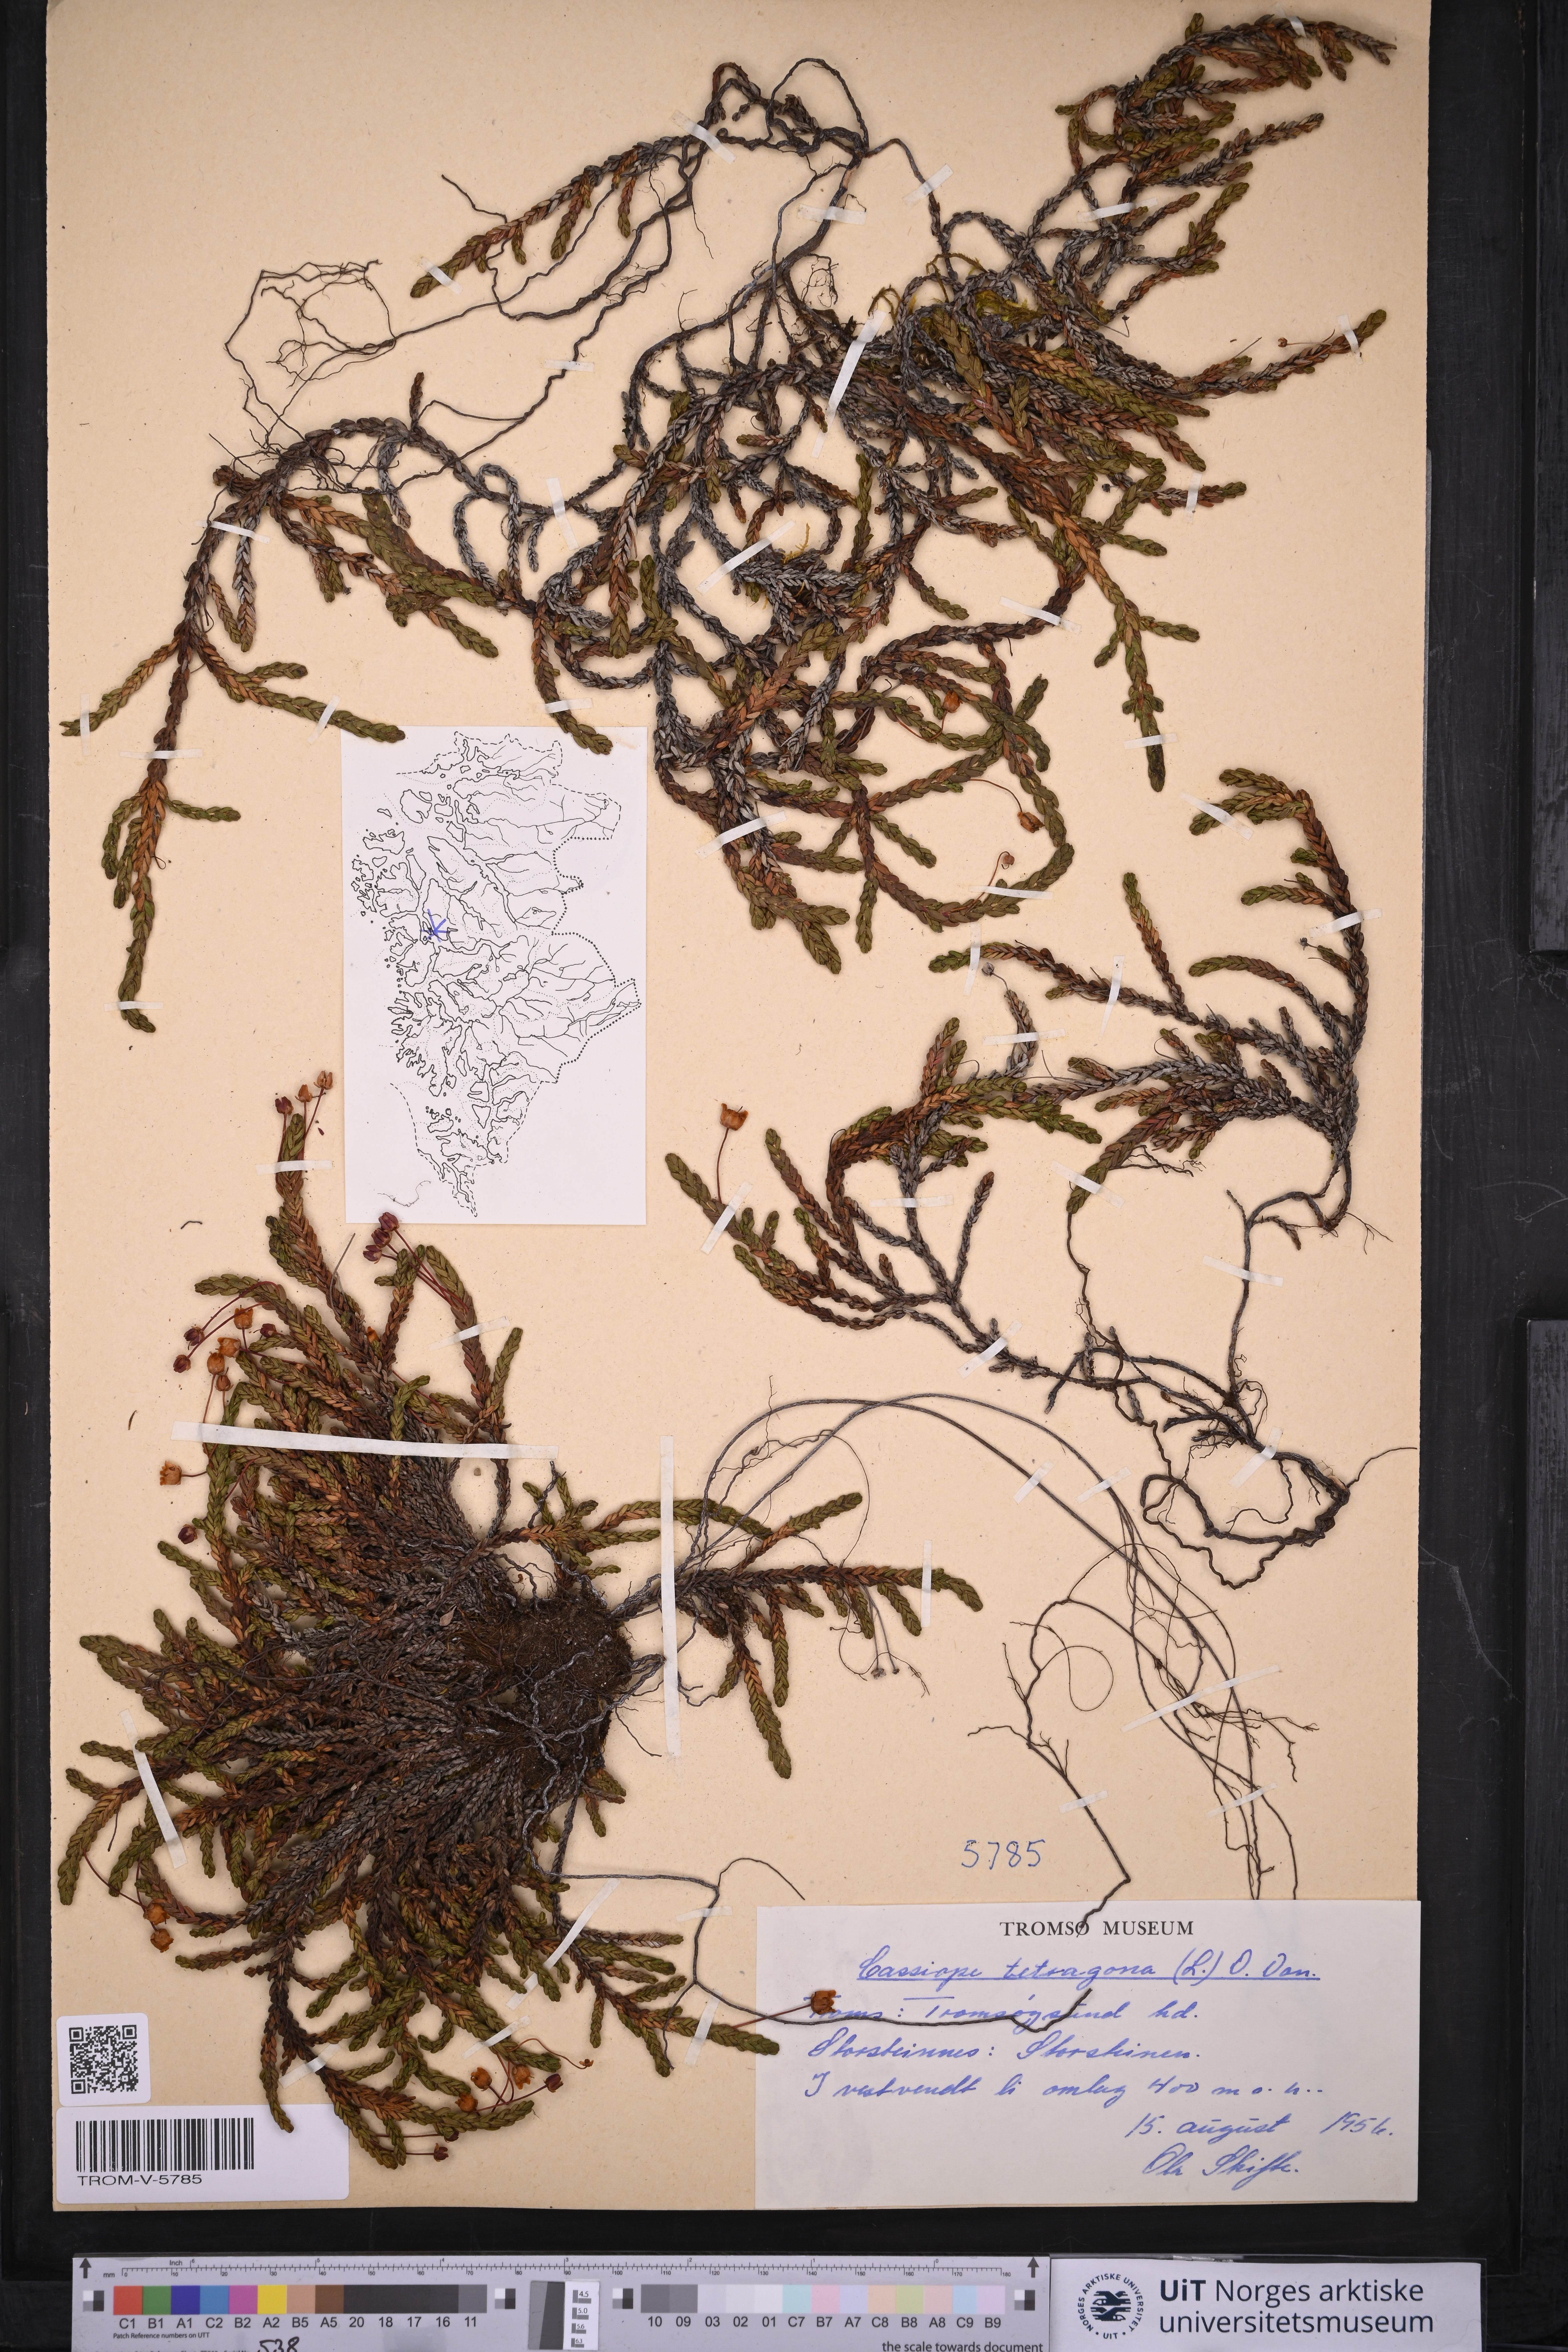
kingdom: Plantae
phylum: Tracheophyta
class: Magnoliopsida
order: Ericales
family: Ericaceae
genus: Cassiope
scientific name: Cassiope tetragona
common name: Arctic bell heather
